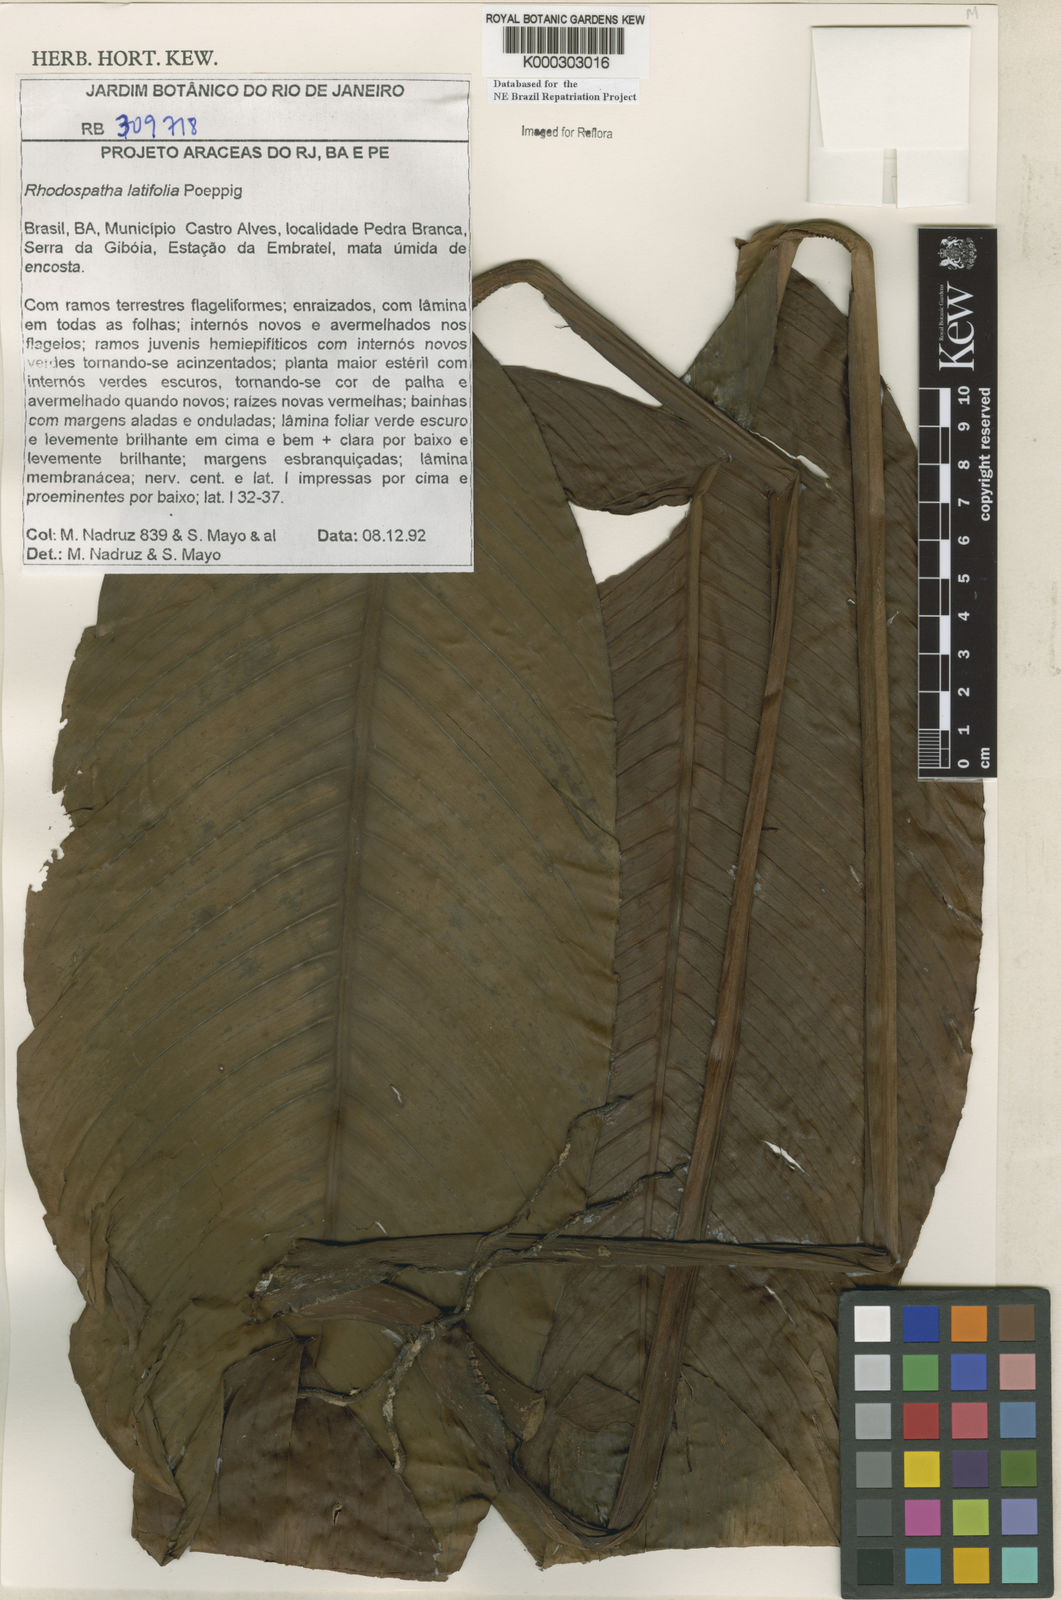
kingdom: Plantae
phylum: Tracheophyta
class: Liliopsida
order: Alismatales
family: Araceae
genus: Rhodospatha
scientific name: Rhodospatha latifolia
